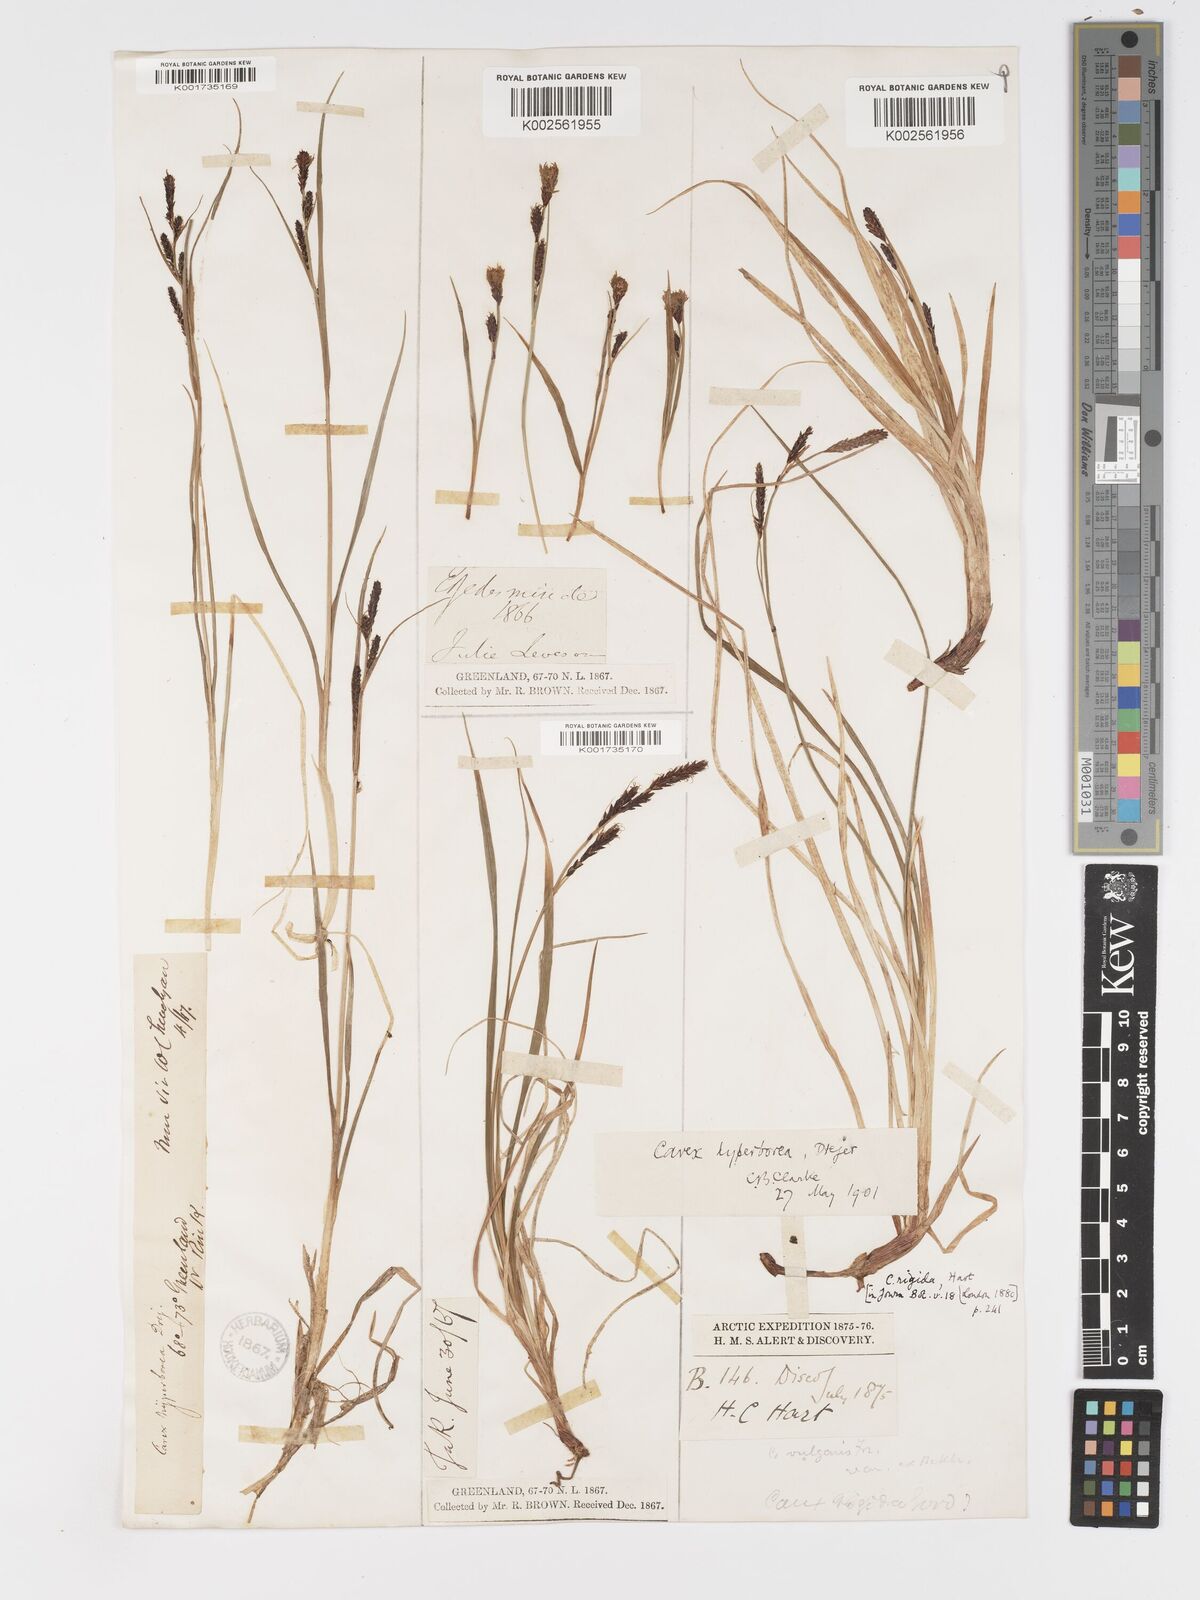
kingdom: Plantae
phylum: Tracheophyta
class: Liliopsida
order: Poales
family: Cyperaceae
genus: Carex
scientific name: Carex bigelowii
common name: Stiff sedge
